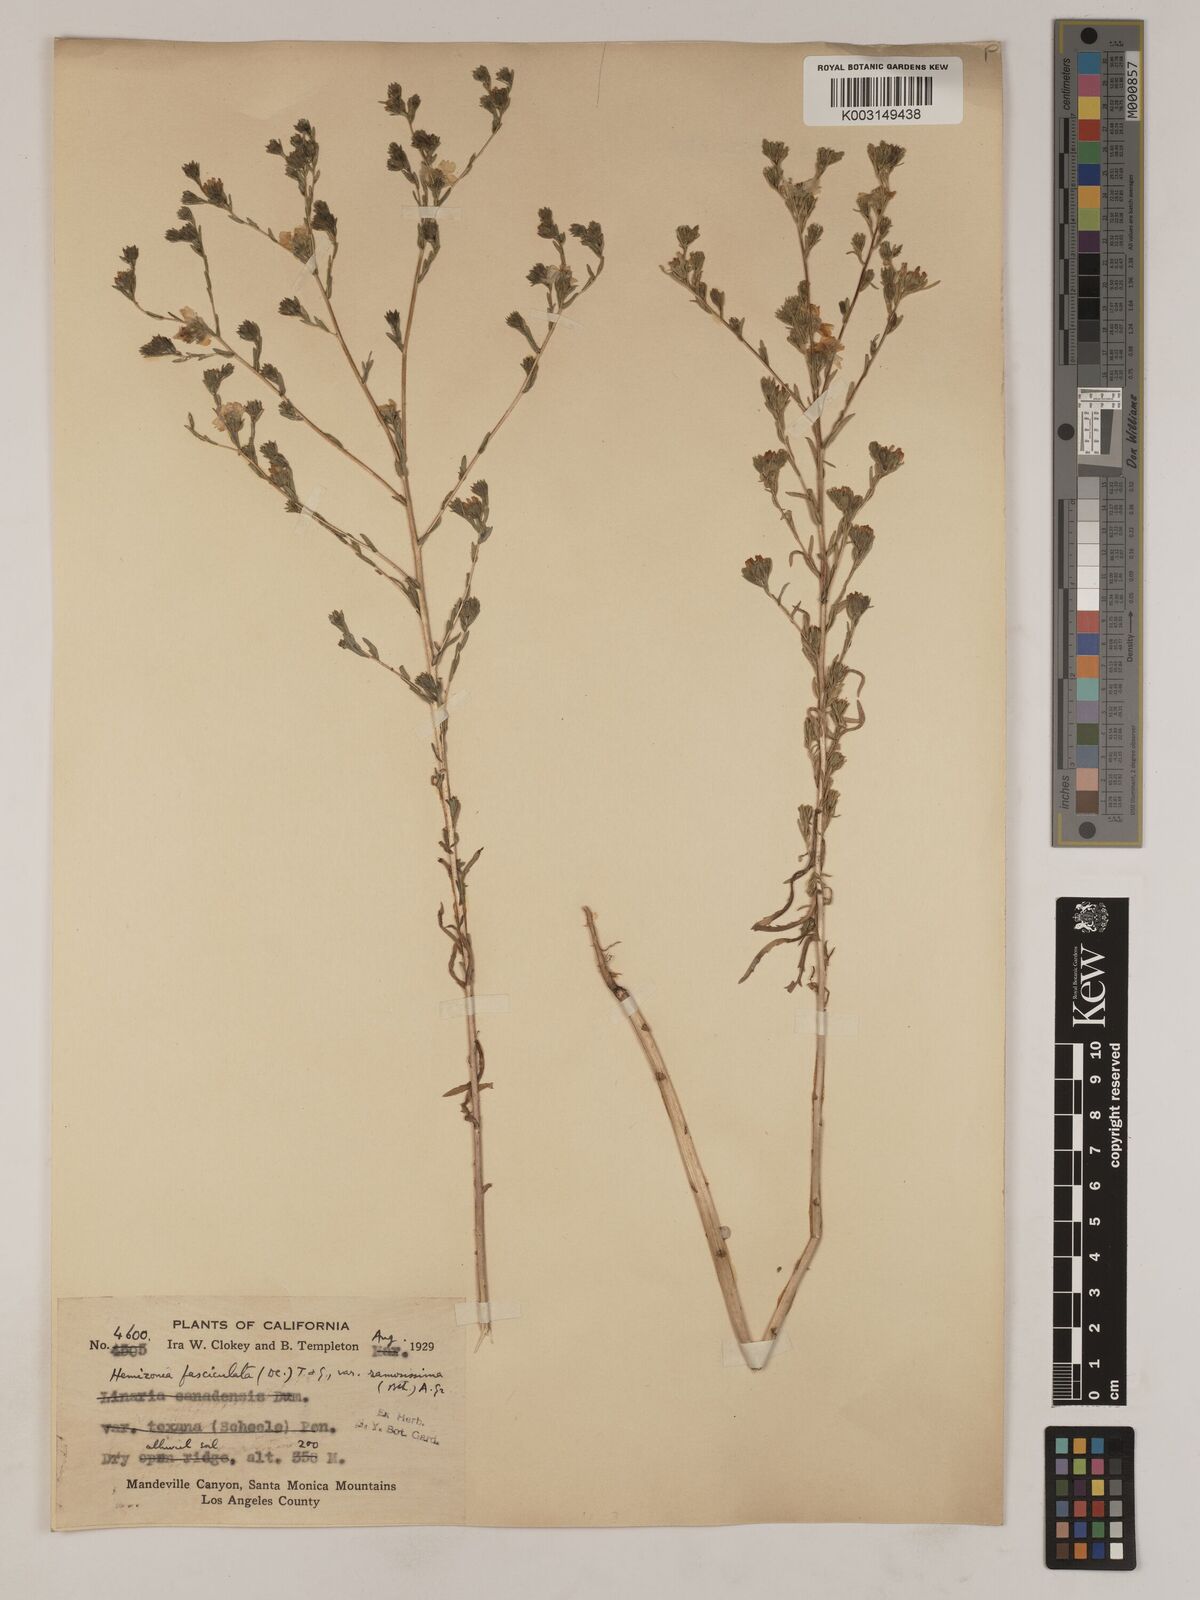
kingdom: Plantae
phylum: Tracheophyta
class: Magnoliopsida
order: Asterales
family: Asteraceae
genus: Deinandra
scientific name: Deinandra fasciculata
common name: Clustered tarweed
